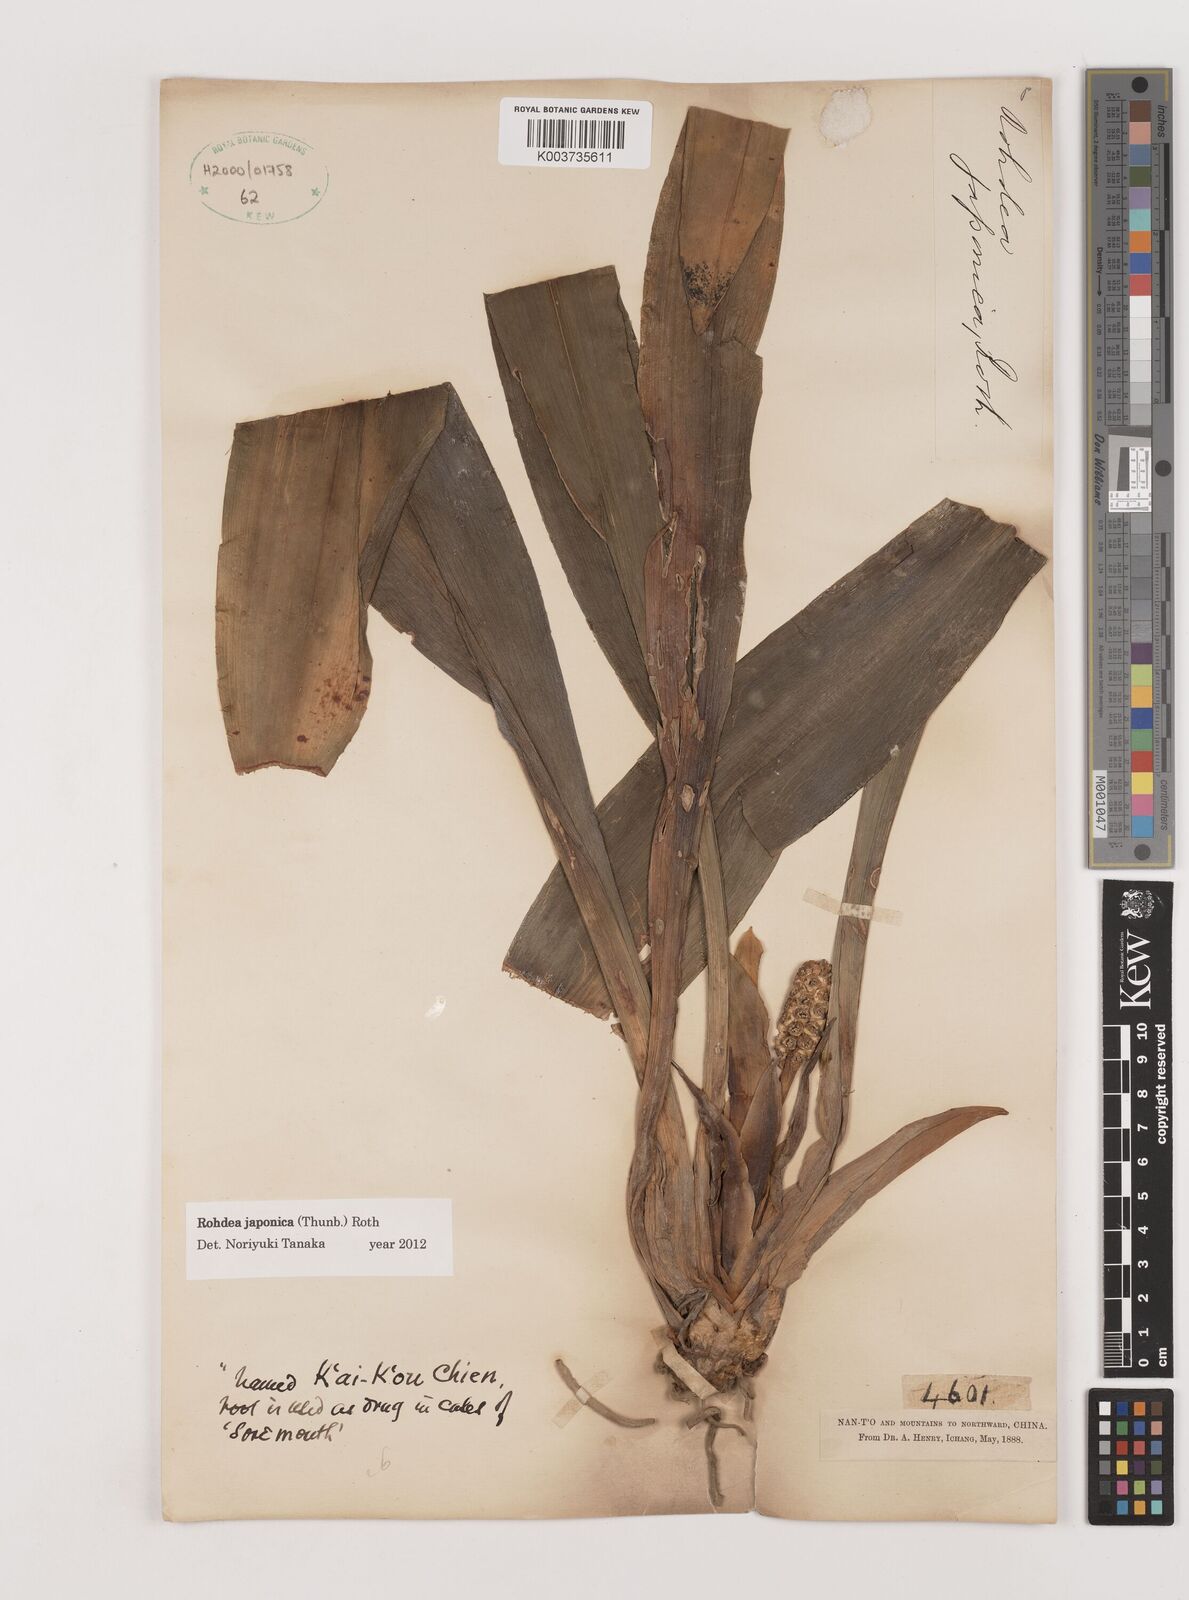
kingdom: Plantae
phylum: Tracheophyta
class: Liliopsida
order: Asparagales
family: Asparagaceae
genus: Rohdea
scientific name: Rohdea japonica
